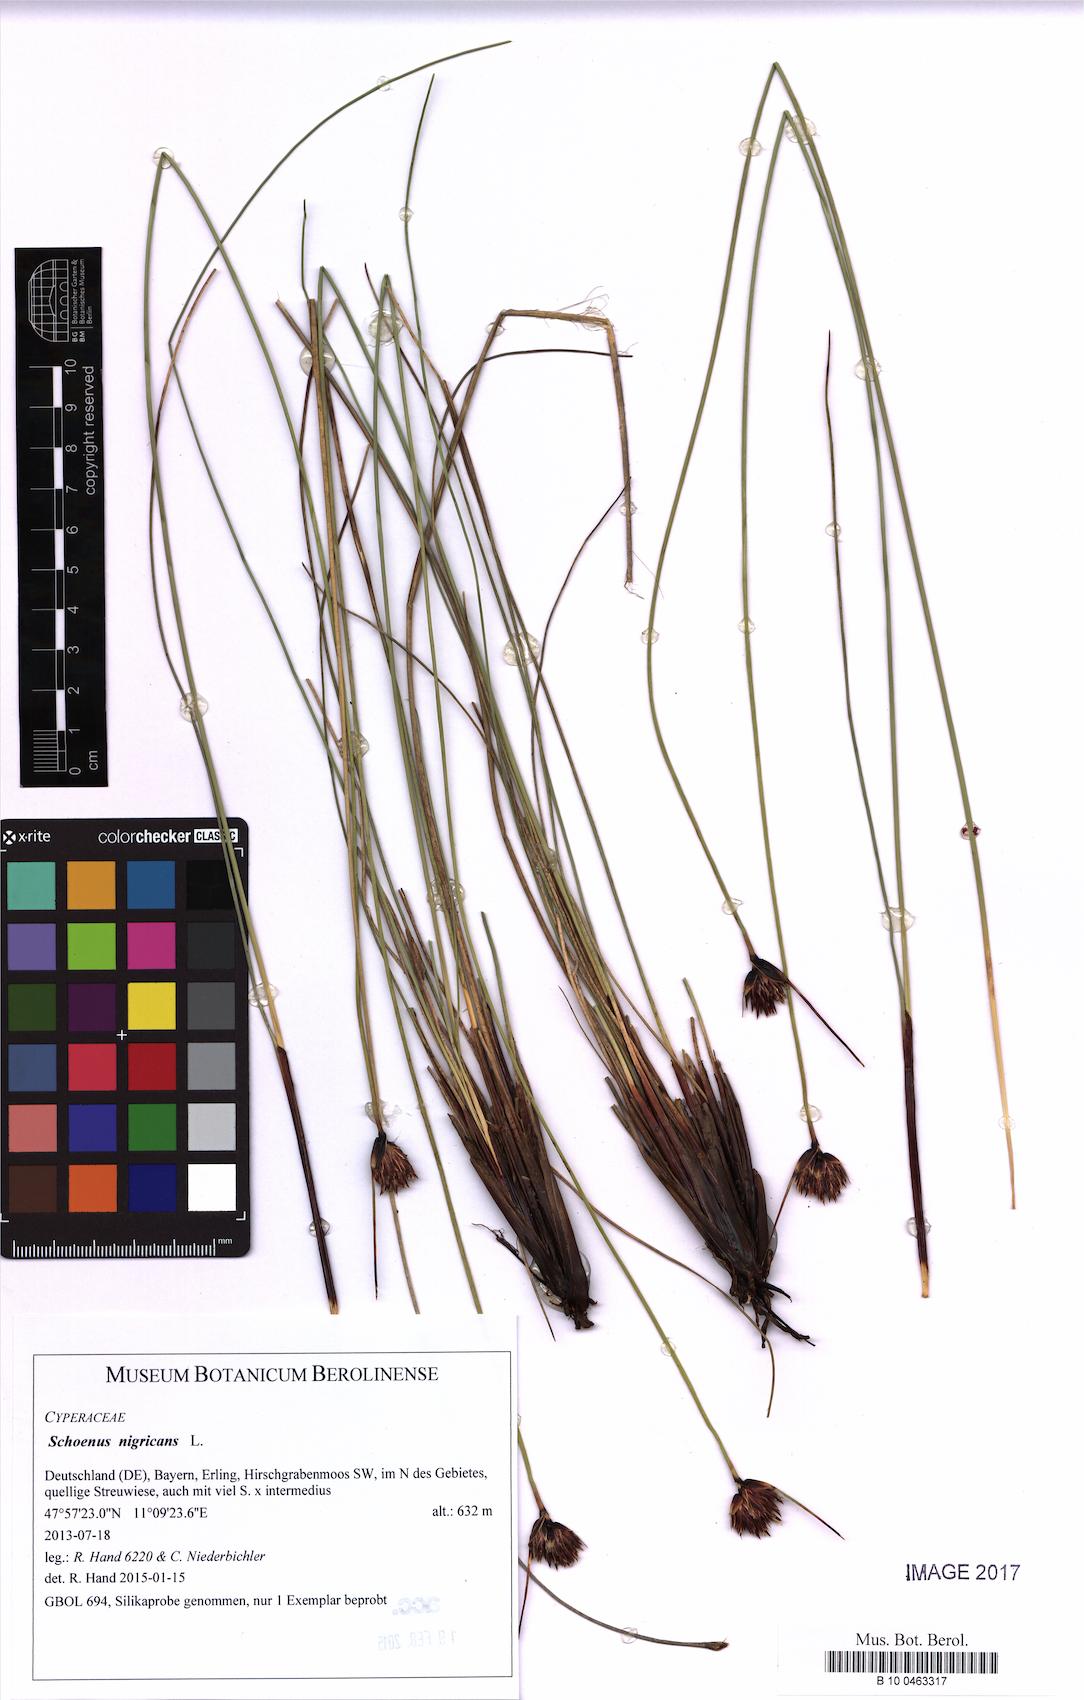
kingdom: Plantae
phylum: Tracheophyta
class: Liliopsida
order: Poales
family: Cyperaceae
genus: Schoenus
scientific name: Schoenus nigricans
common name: Black bog-rush
